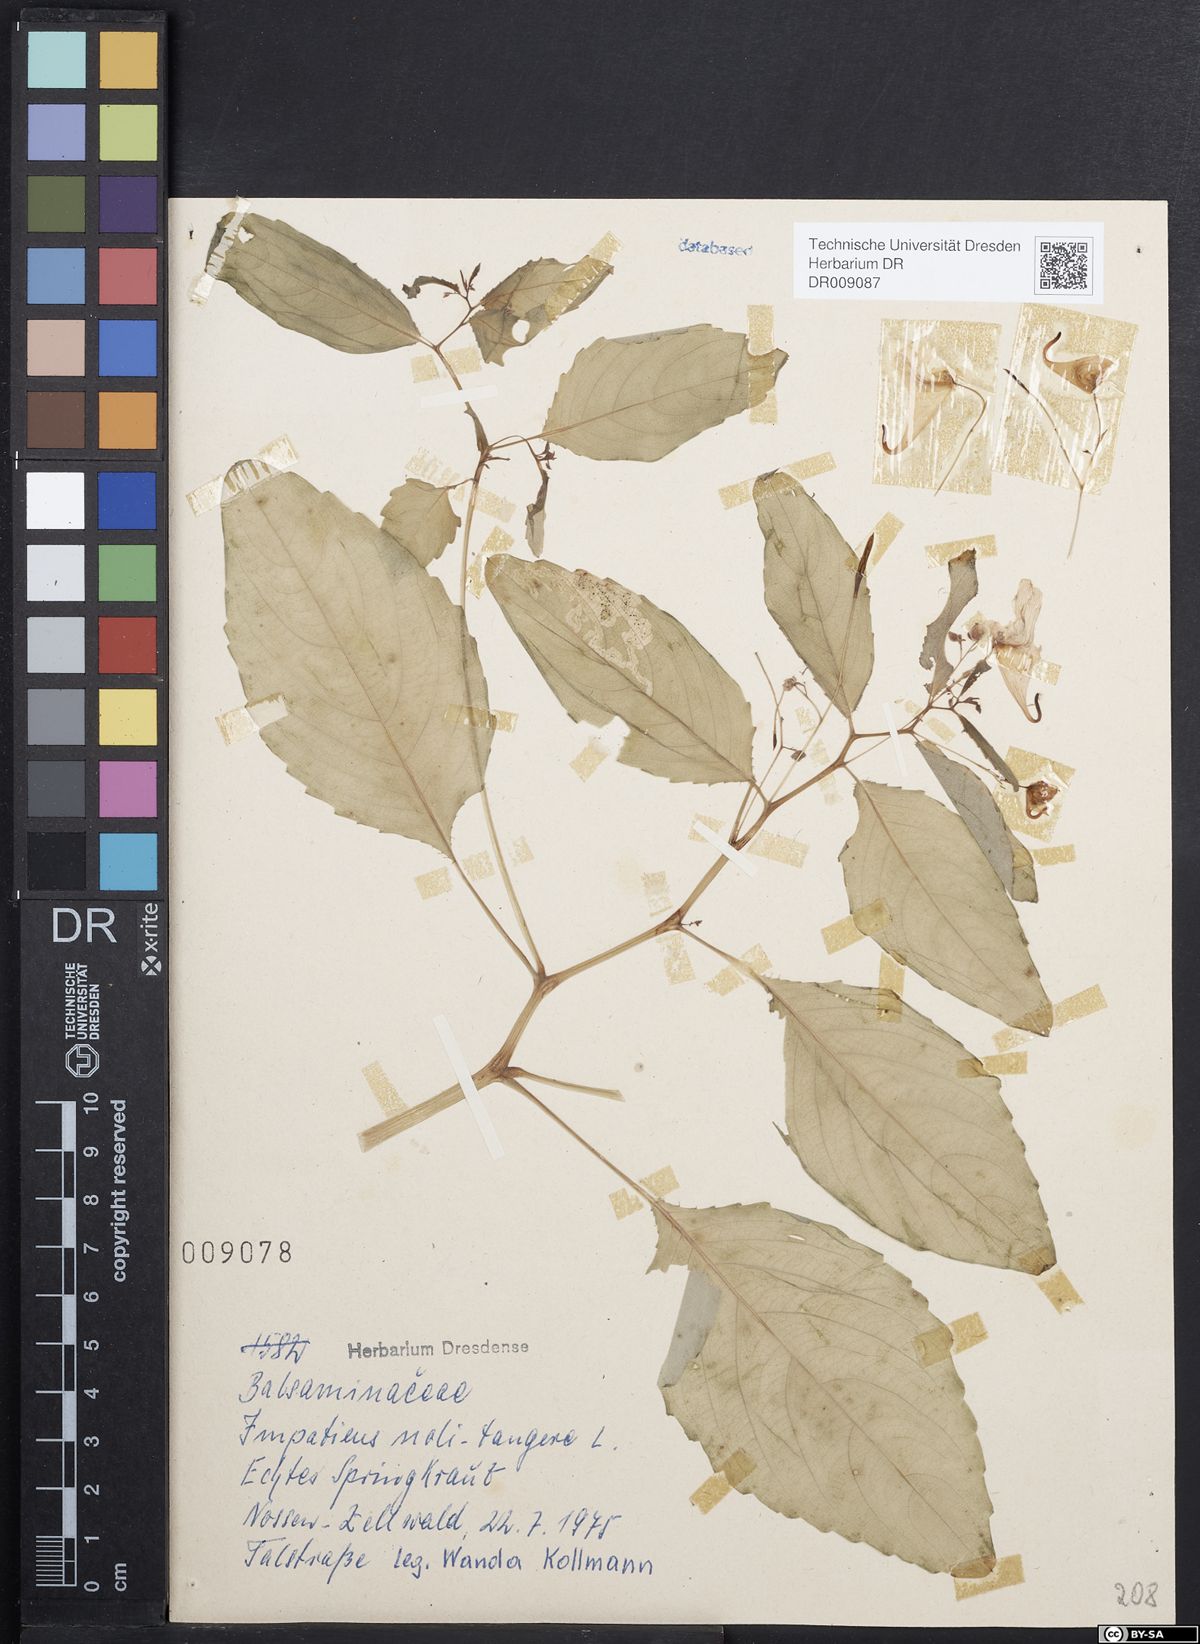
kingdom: Plantae
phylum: Tracheophyta
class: Magnoliopsida
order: Ericales
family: Balsaminaceae
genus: Impatiens
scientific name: Impatiens noli-tangere
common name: Touch-me-not balsam
